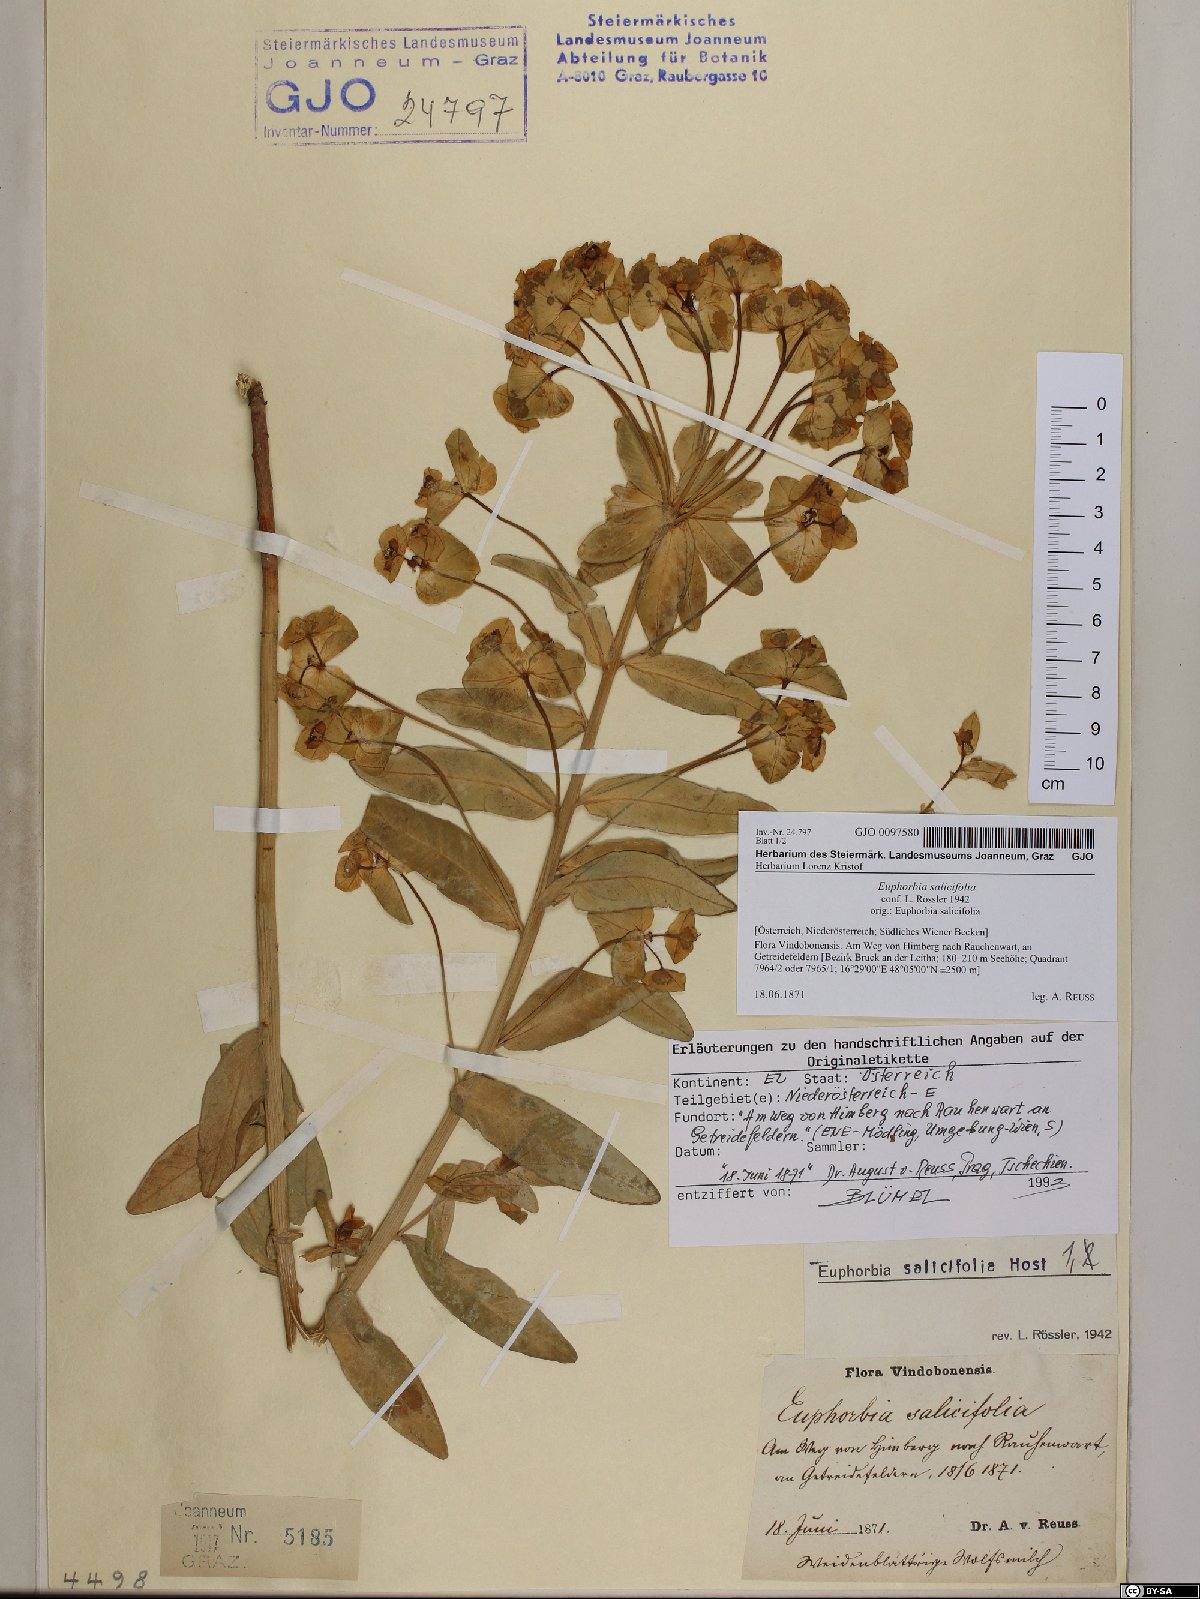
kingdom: Plantae
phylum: Tracheophyta
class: Magnoliopsida
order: Malpighiales
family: Euphorbiaceae
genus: Euphorbia
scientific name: Euphorbia salicifolia
